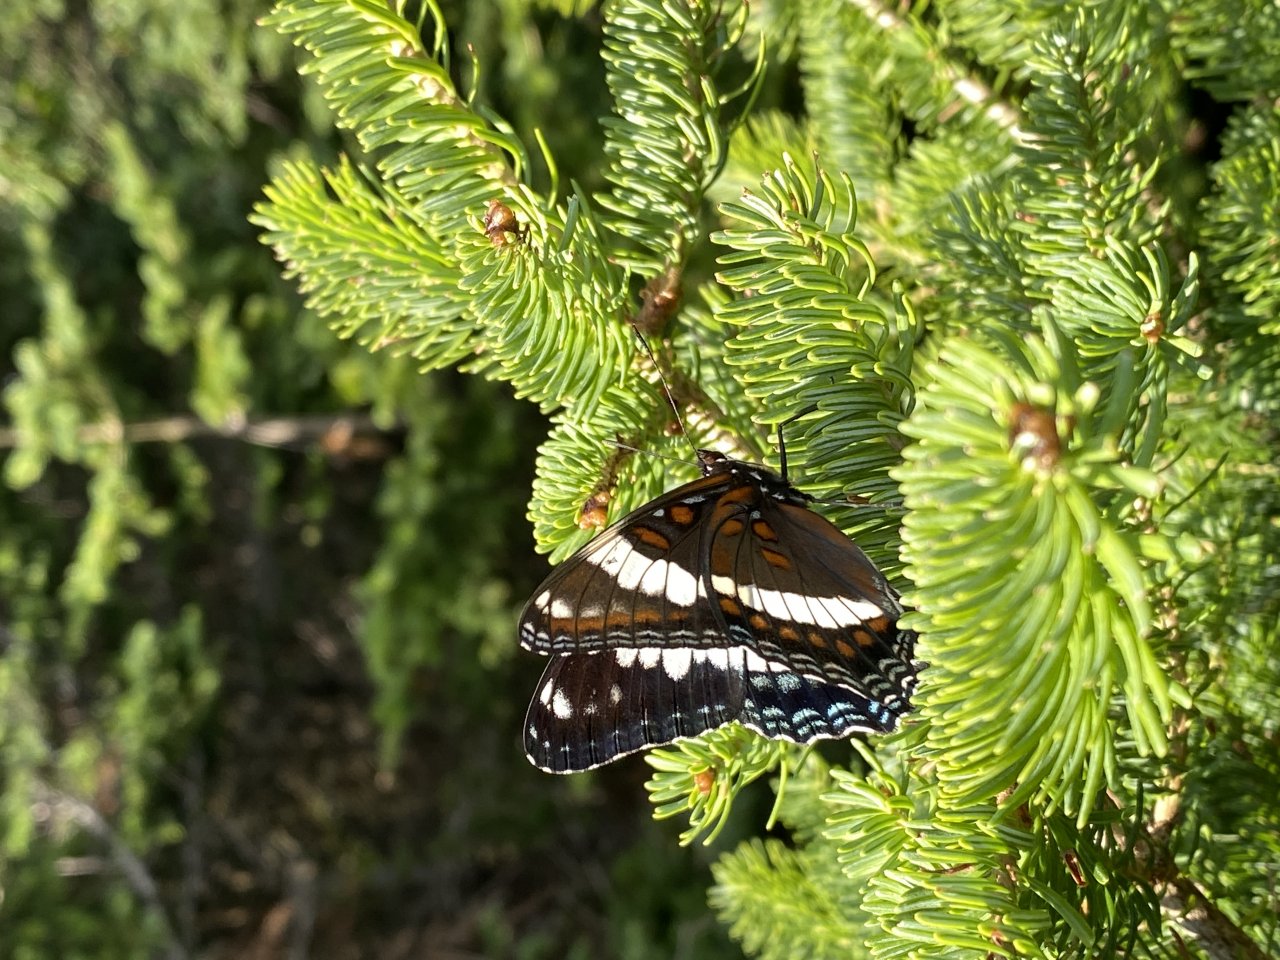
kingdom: Animalia
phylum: Arthropoda
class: Insecta
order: Lepidoptera
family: Nymphalidae
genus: Limenitis
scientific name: Limenitis arthemis
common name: Red-spotted Admiral
